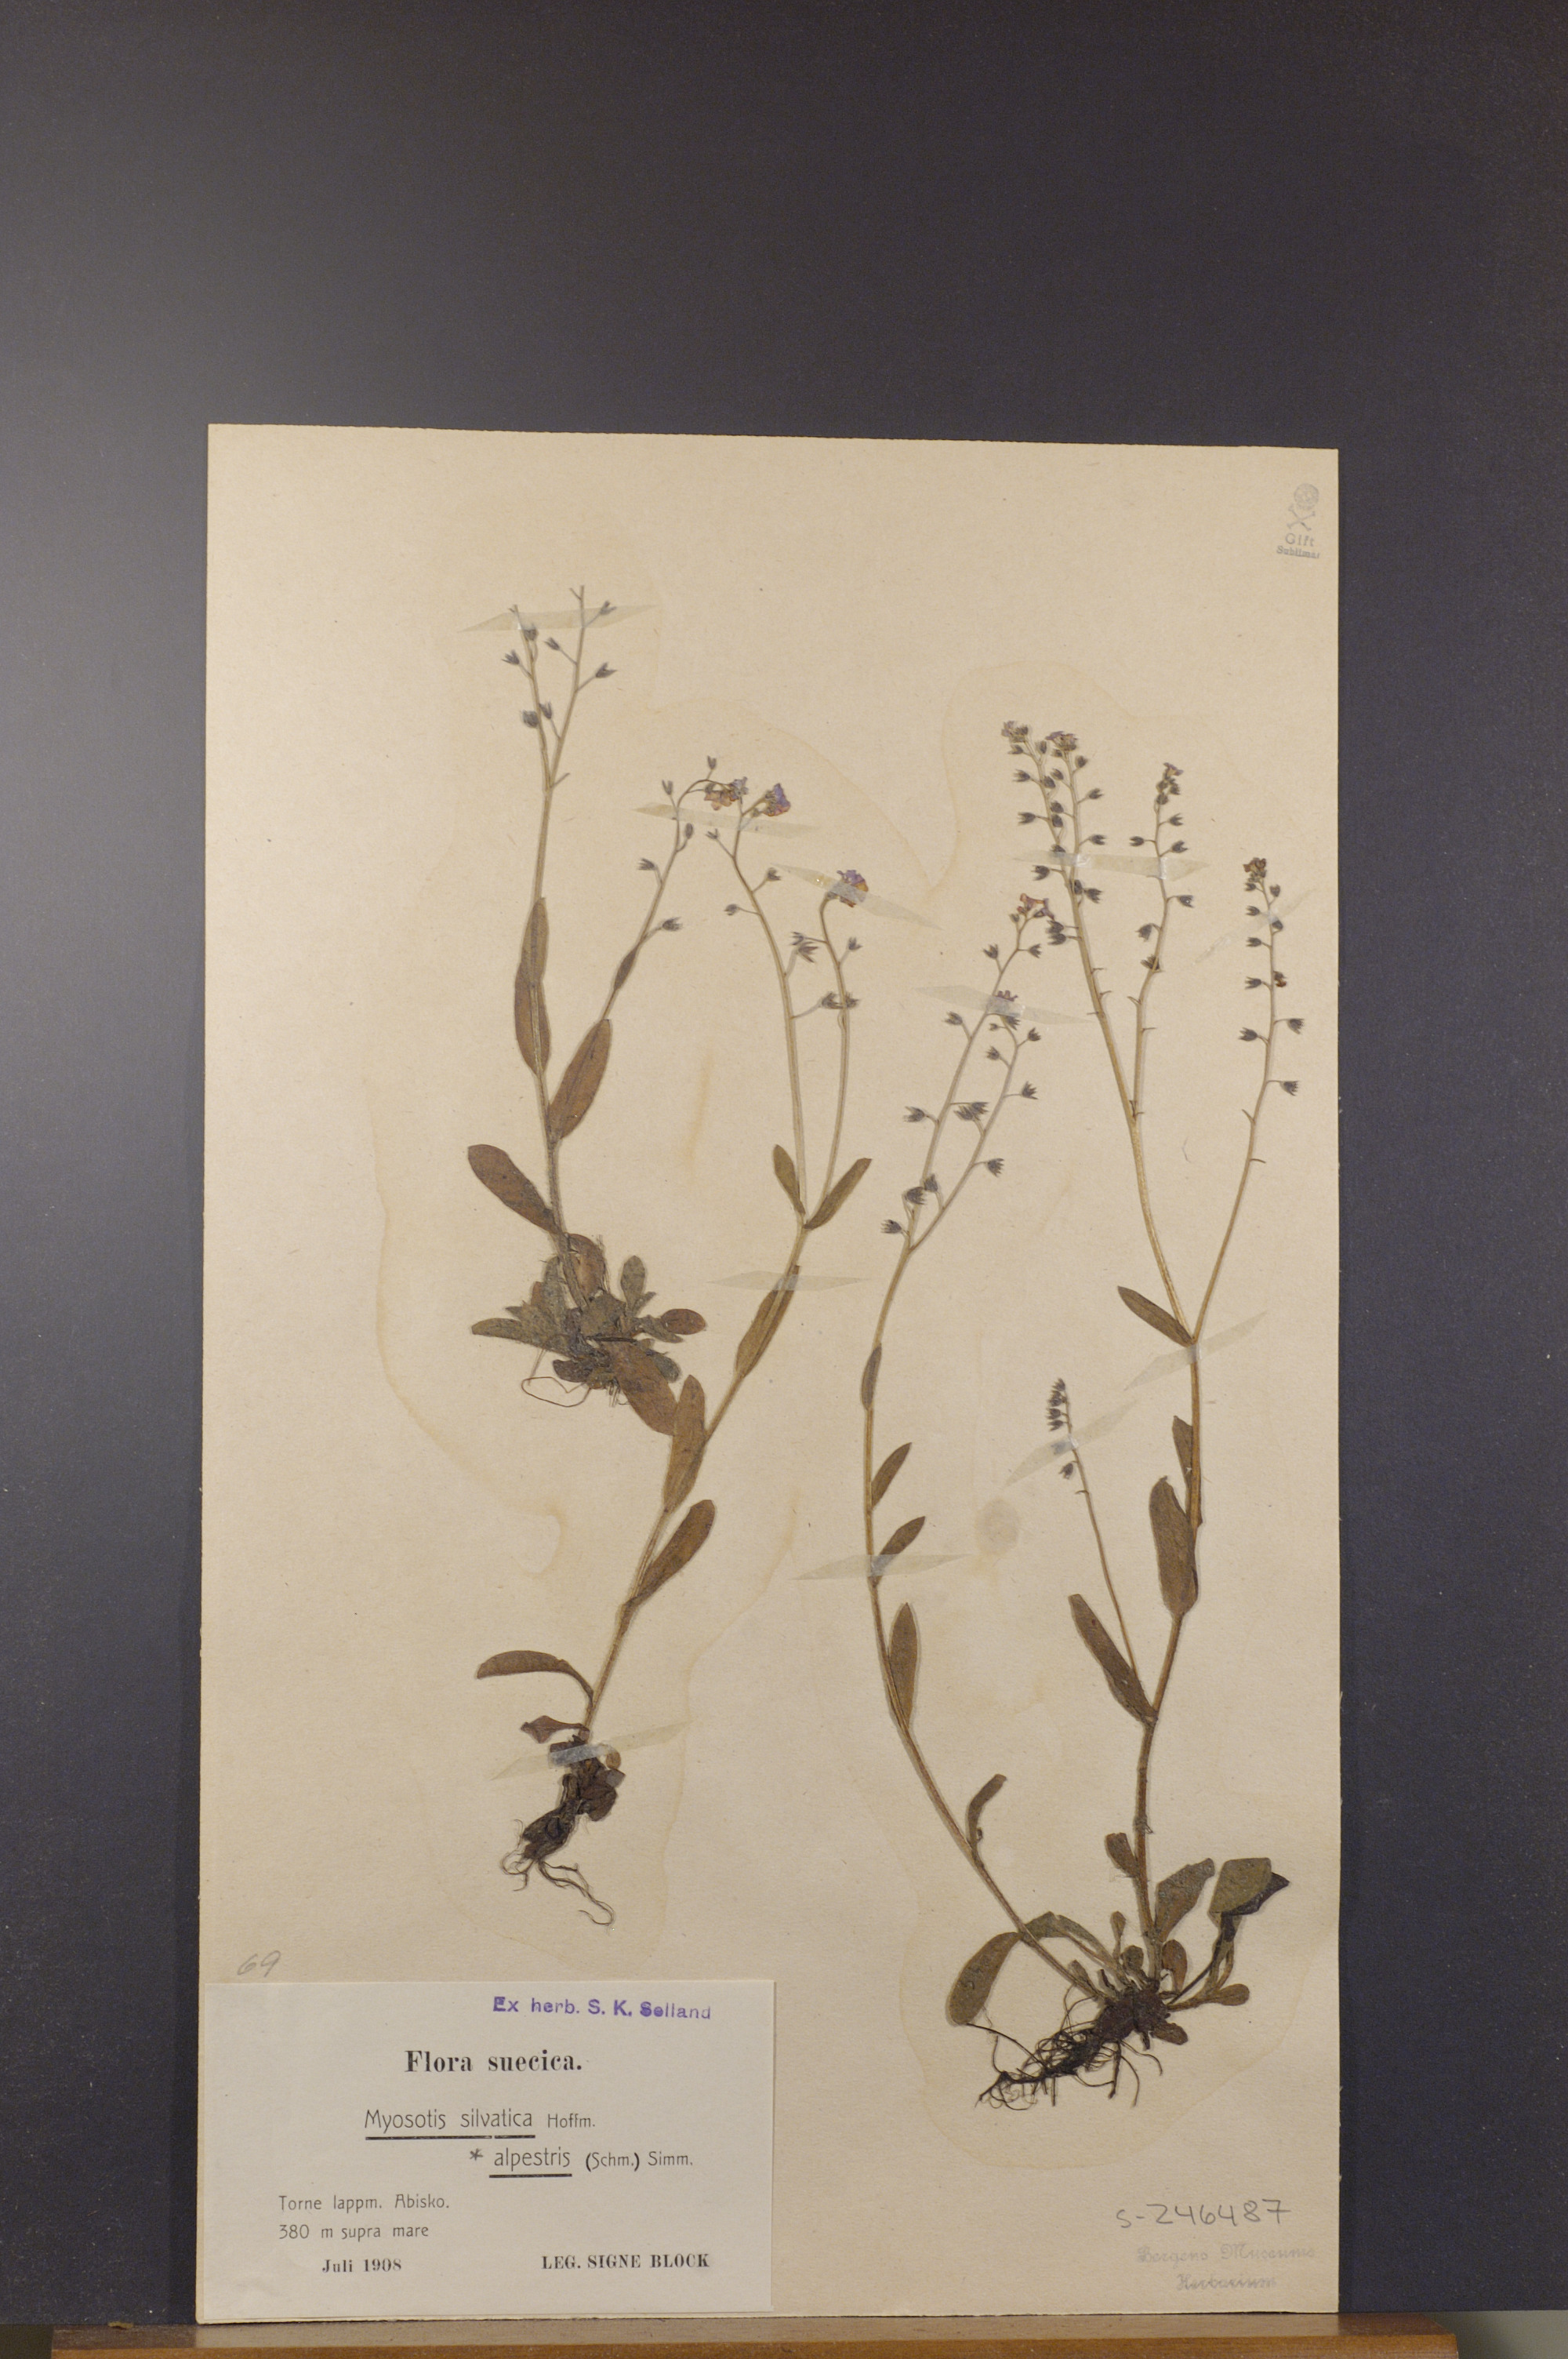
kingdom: Plantae
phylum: Tracheophyta
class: Magnoliopsida
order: Boraginales
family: Boraginaceae
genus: Myosotis
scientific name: Myosotis decumbens
